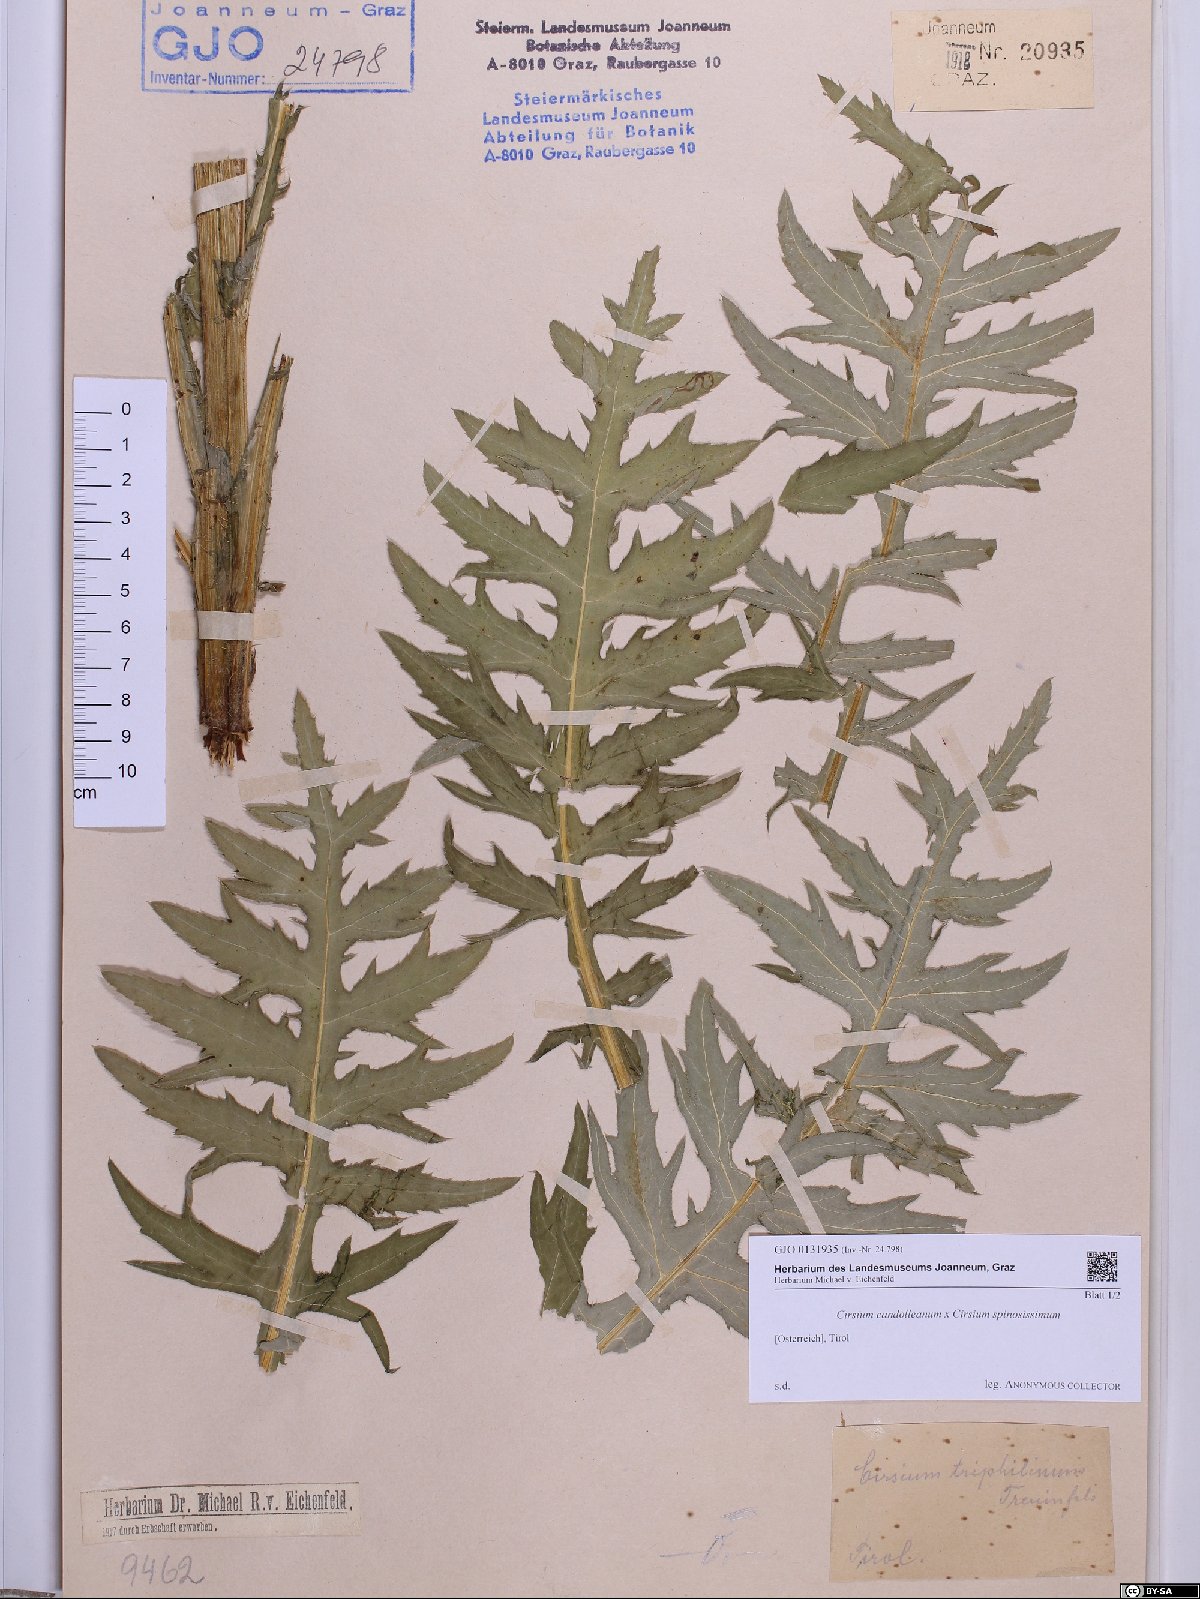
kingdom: Plantae
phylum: Tracheophyta
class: Magnoliopsida
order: Asterales
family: Asteraceae
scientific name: Asteraceae
